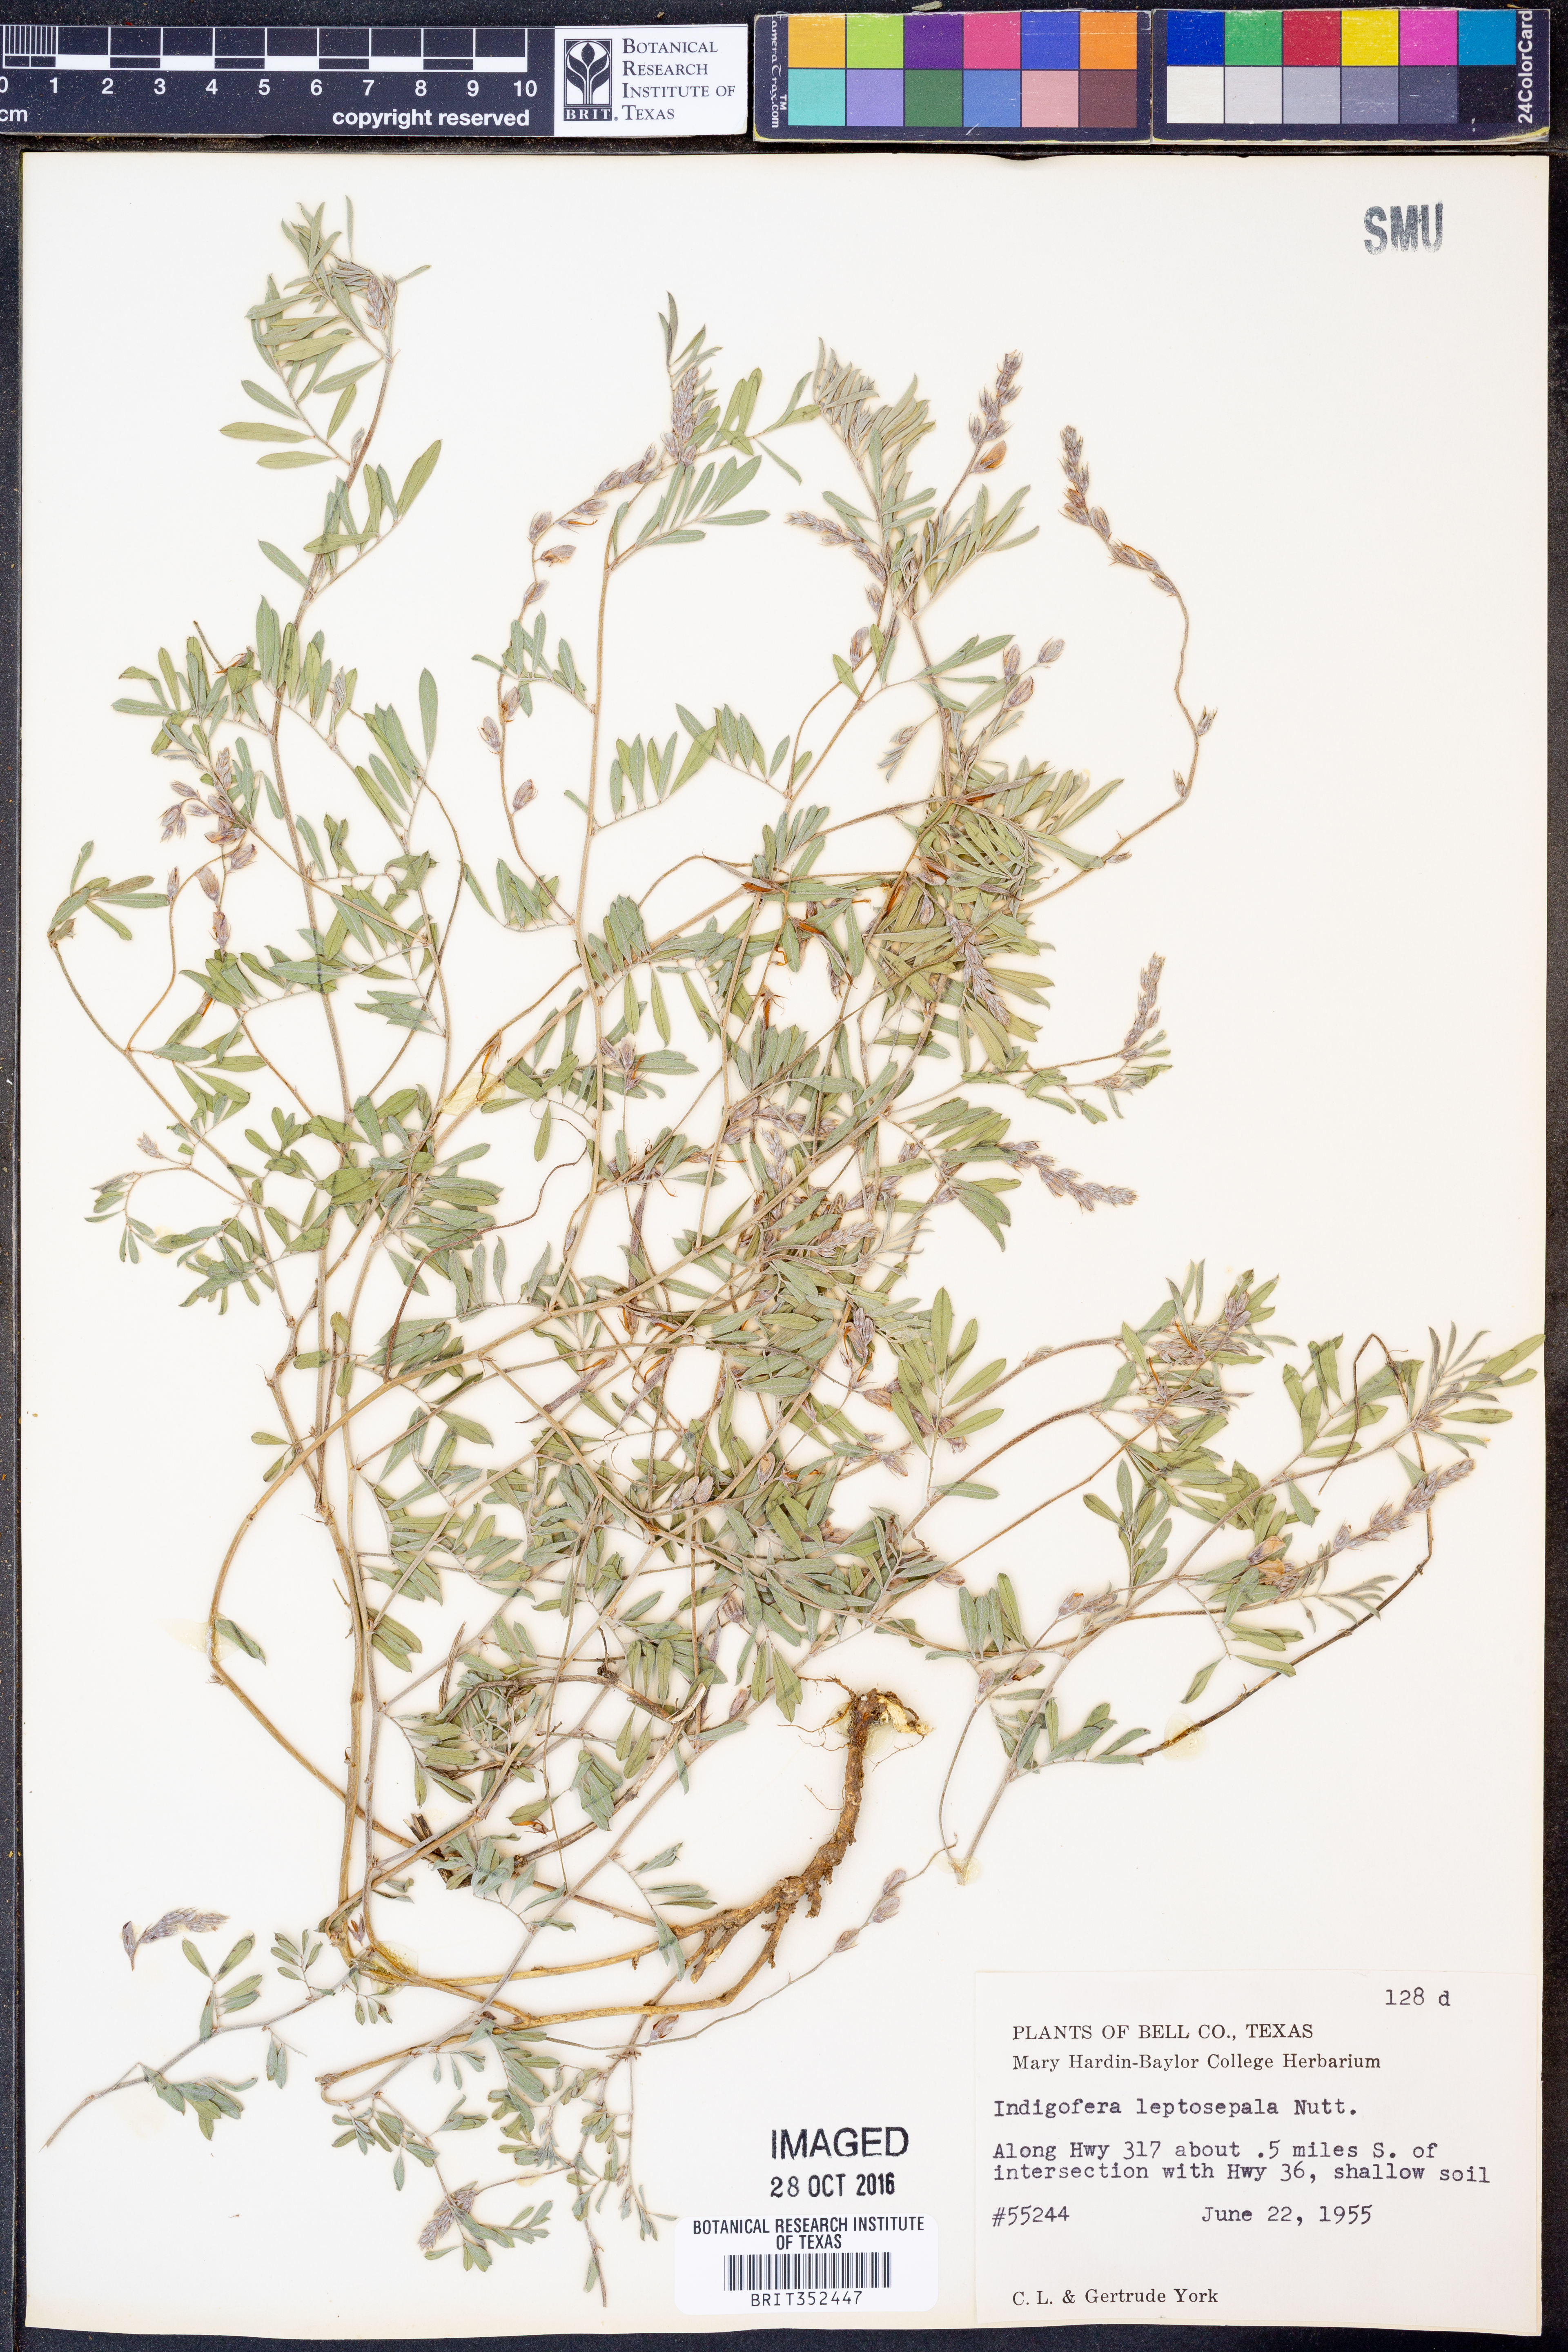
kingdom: Plantae
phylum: Tracheophyta
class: Magnoliopsida
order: Fabales
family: Fabaceae
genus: Indigofera
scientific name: Indigofera argutidens
